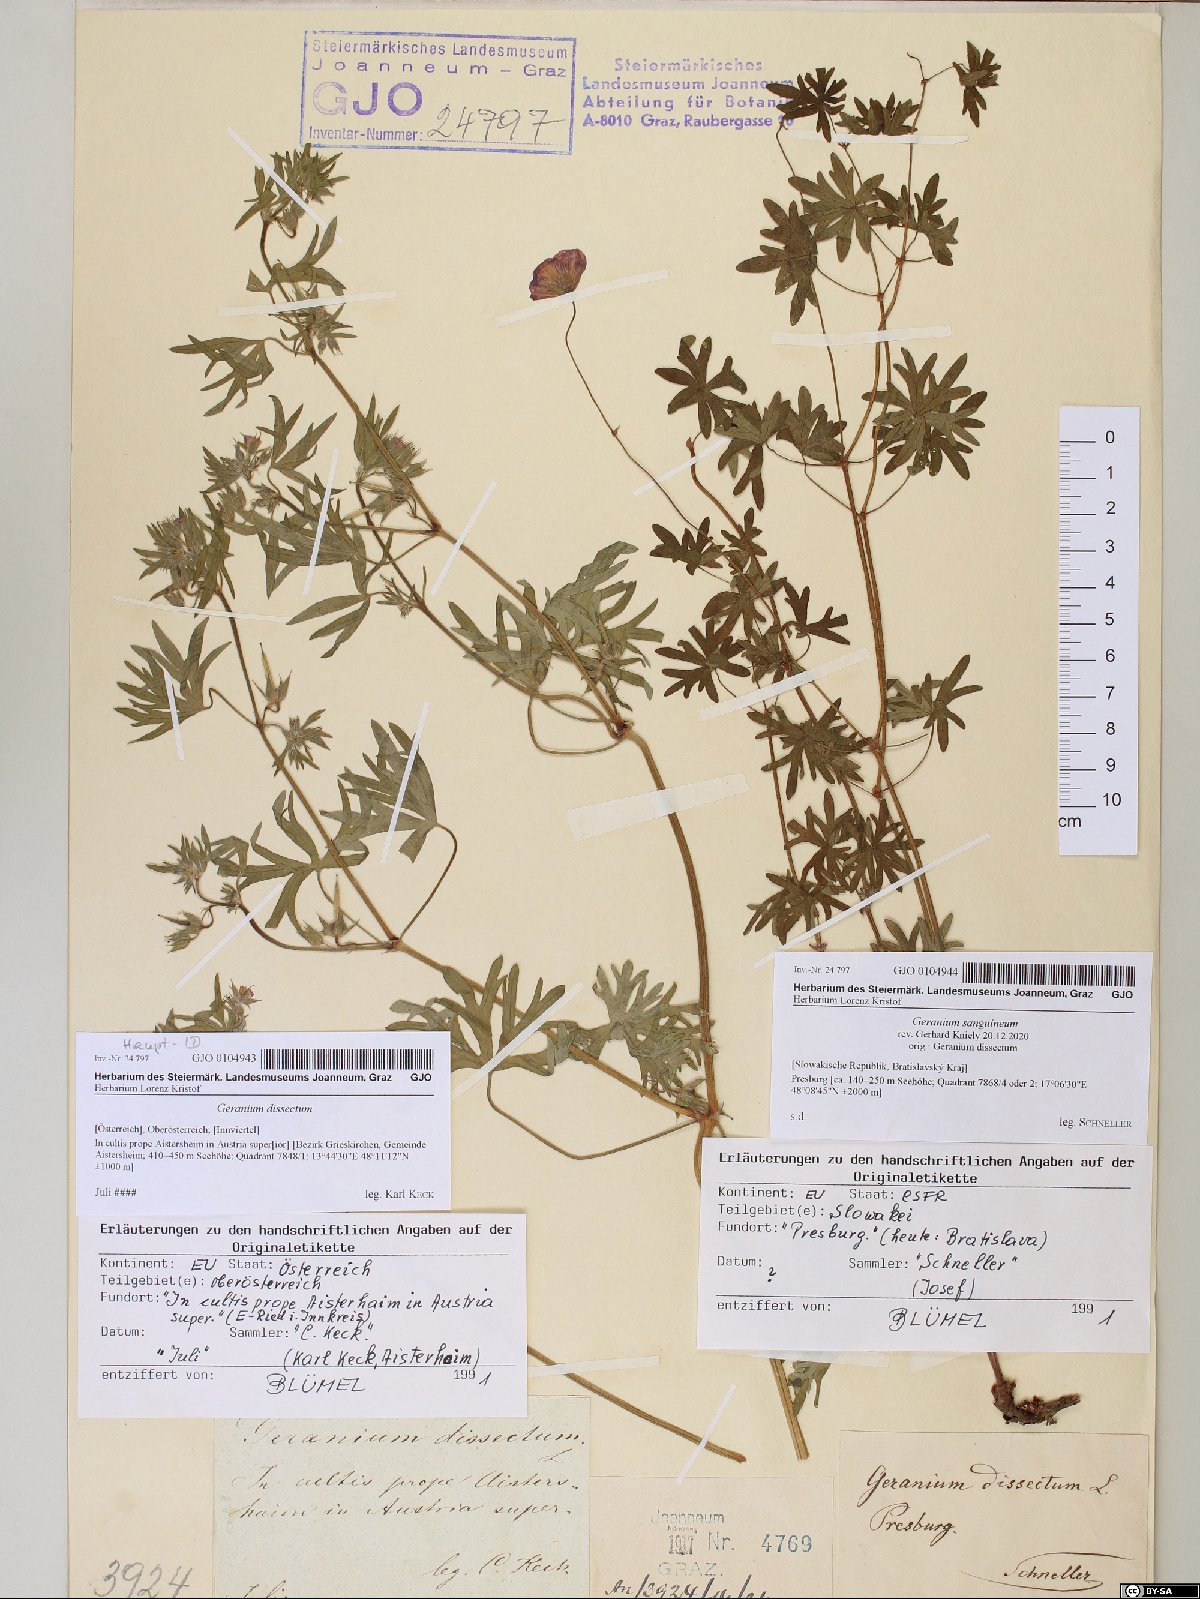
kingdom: Plantae
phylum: Tracheophyta
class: Magnoliopsida
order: Geraniales
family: Geraniaceae
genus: Geranium
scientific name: Geranium sanguineum
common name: Bloody crane's-bill
